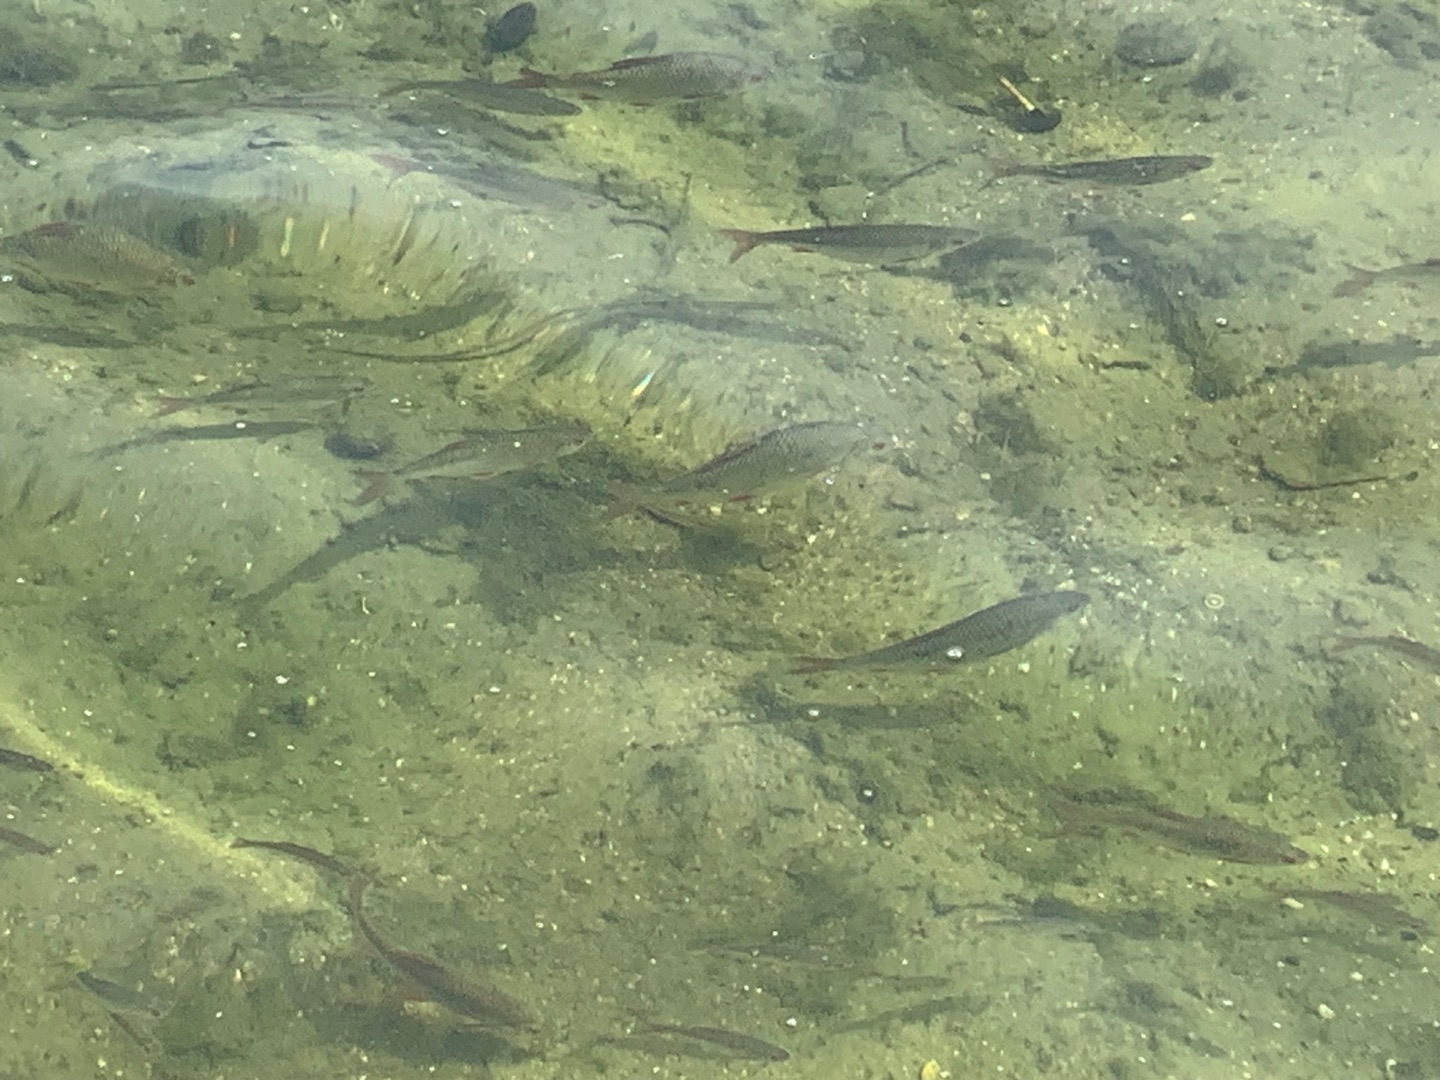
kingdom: Animalia
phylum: Chordata
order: Cypriniformes
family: Cyprinidae
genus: Rutilus
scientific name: Rutilus rutilus
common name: Skalle
